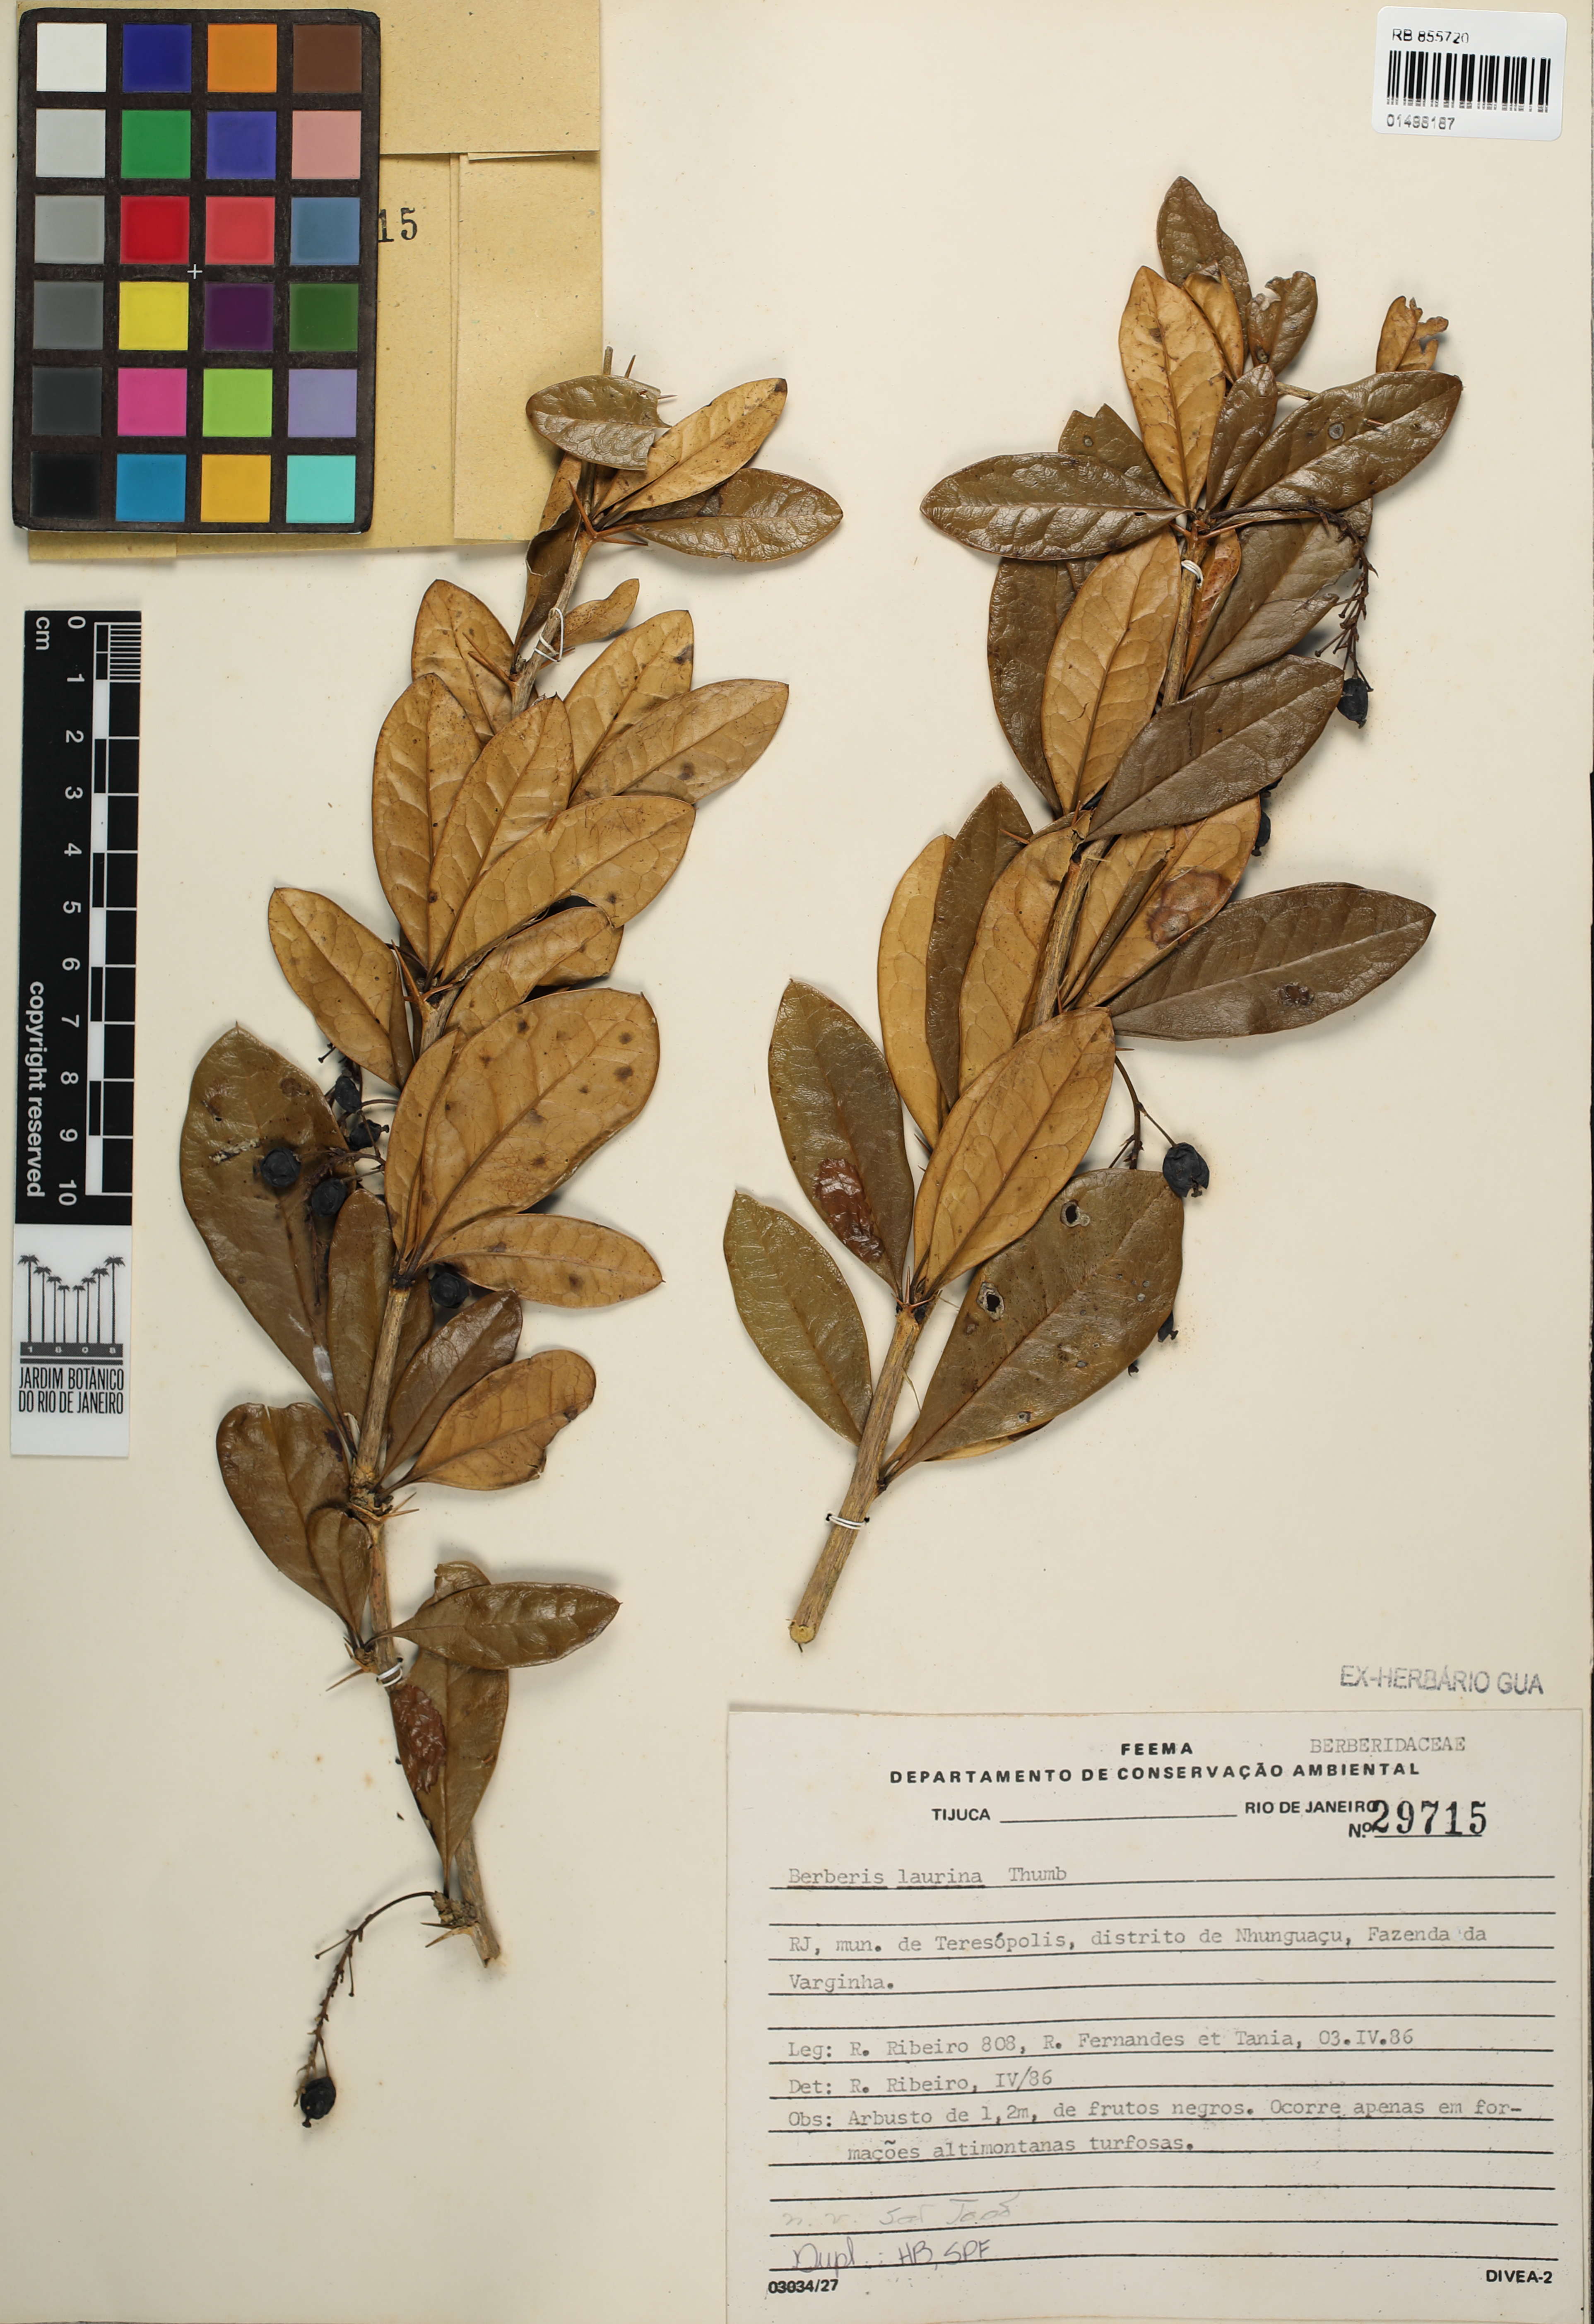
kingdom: Plantae
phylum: Tracheophyta
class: Magnoliopsida
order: Ranunculales
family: Berberidaceae
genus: Berberis
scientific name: Berberis laurina
